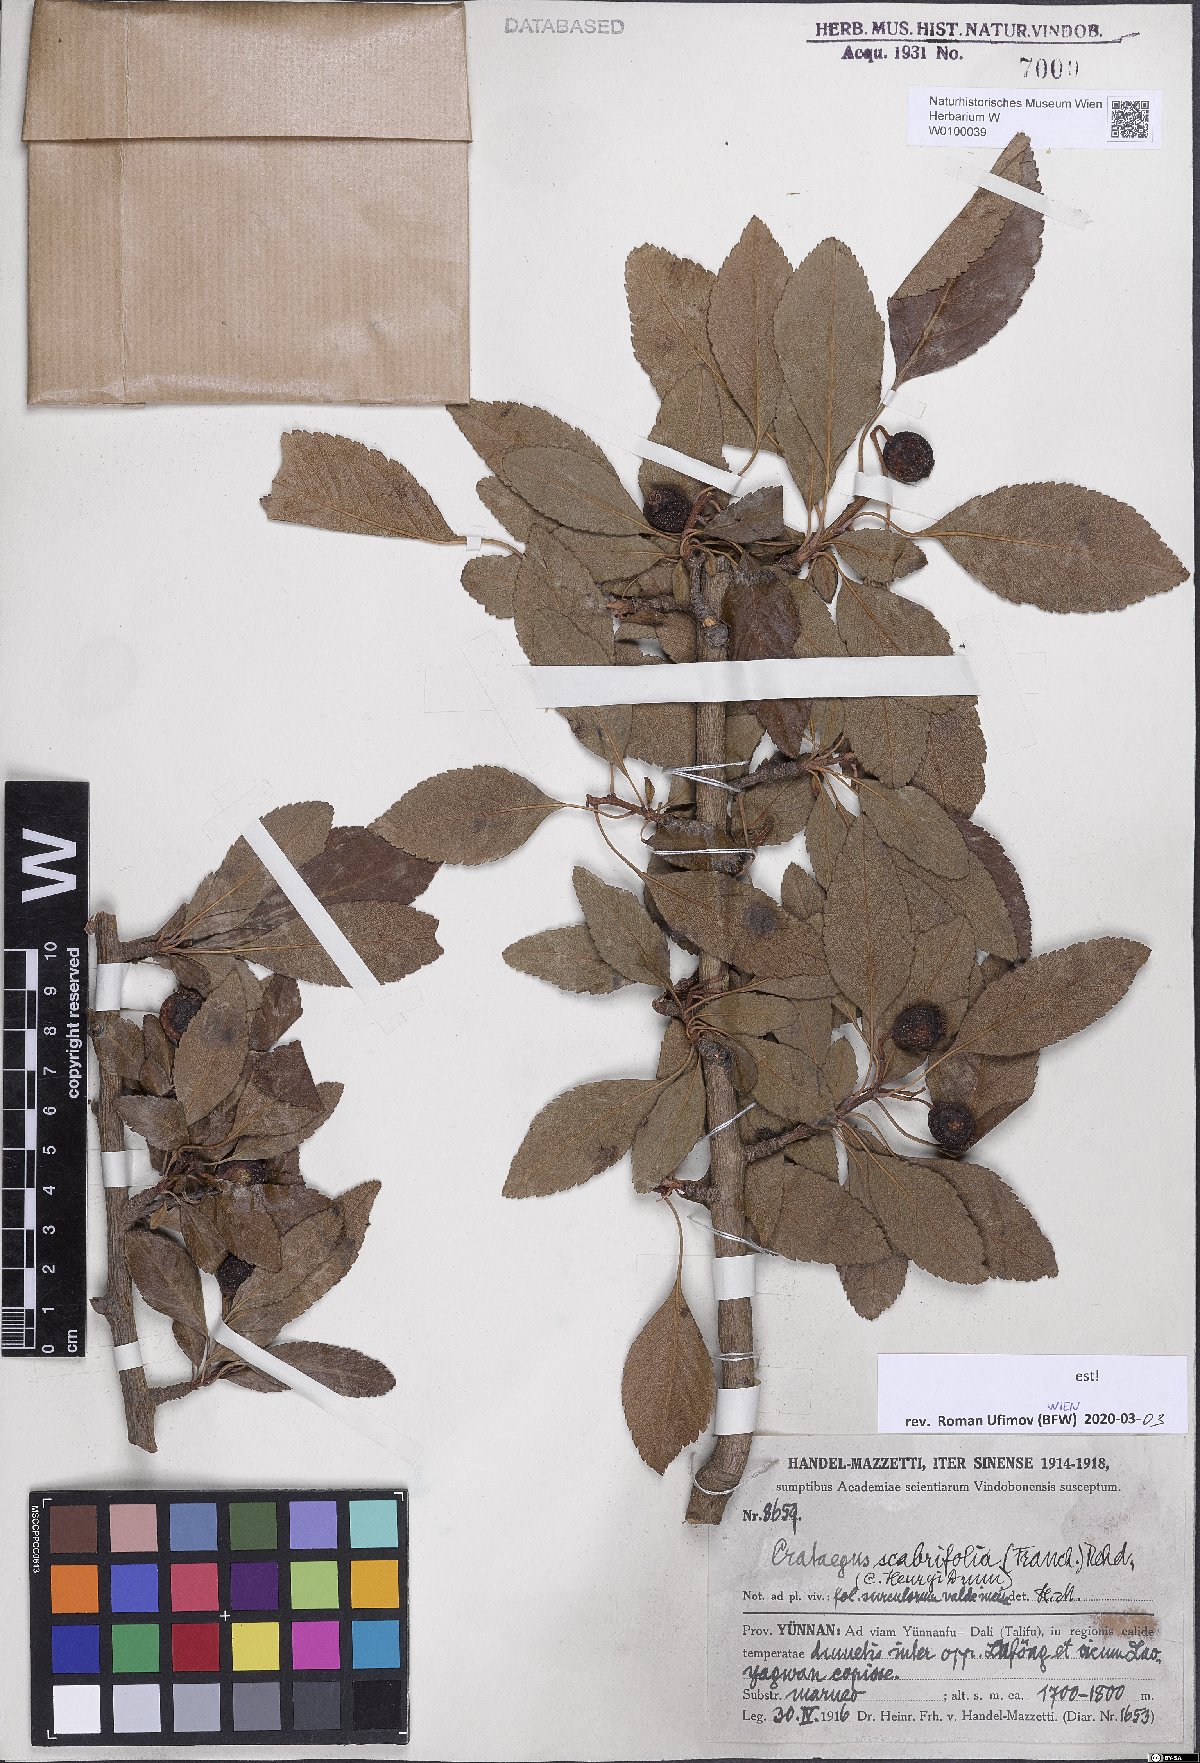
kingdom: Plantae
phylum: Tracheophyta
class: Magnoliopsida
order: Rosales
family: Rosaceae
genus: Crataegus
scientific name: Crataegus scabrifolia
